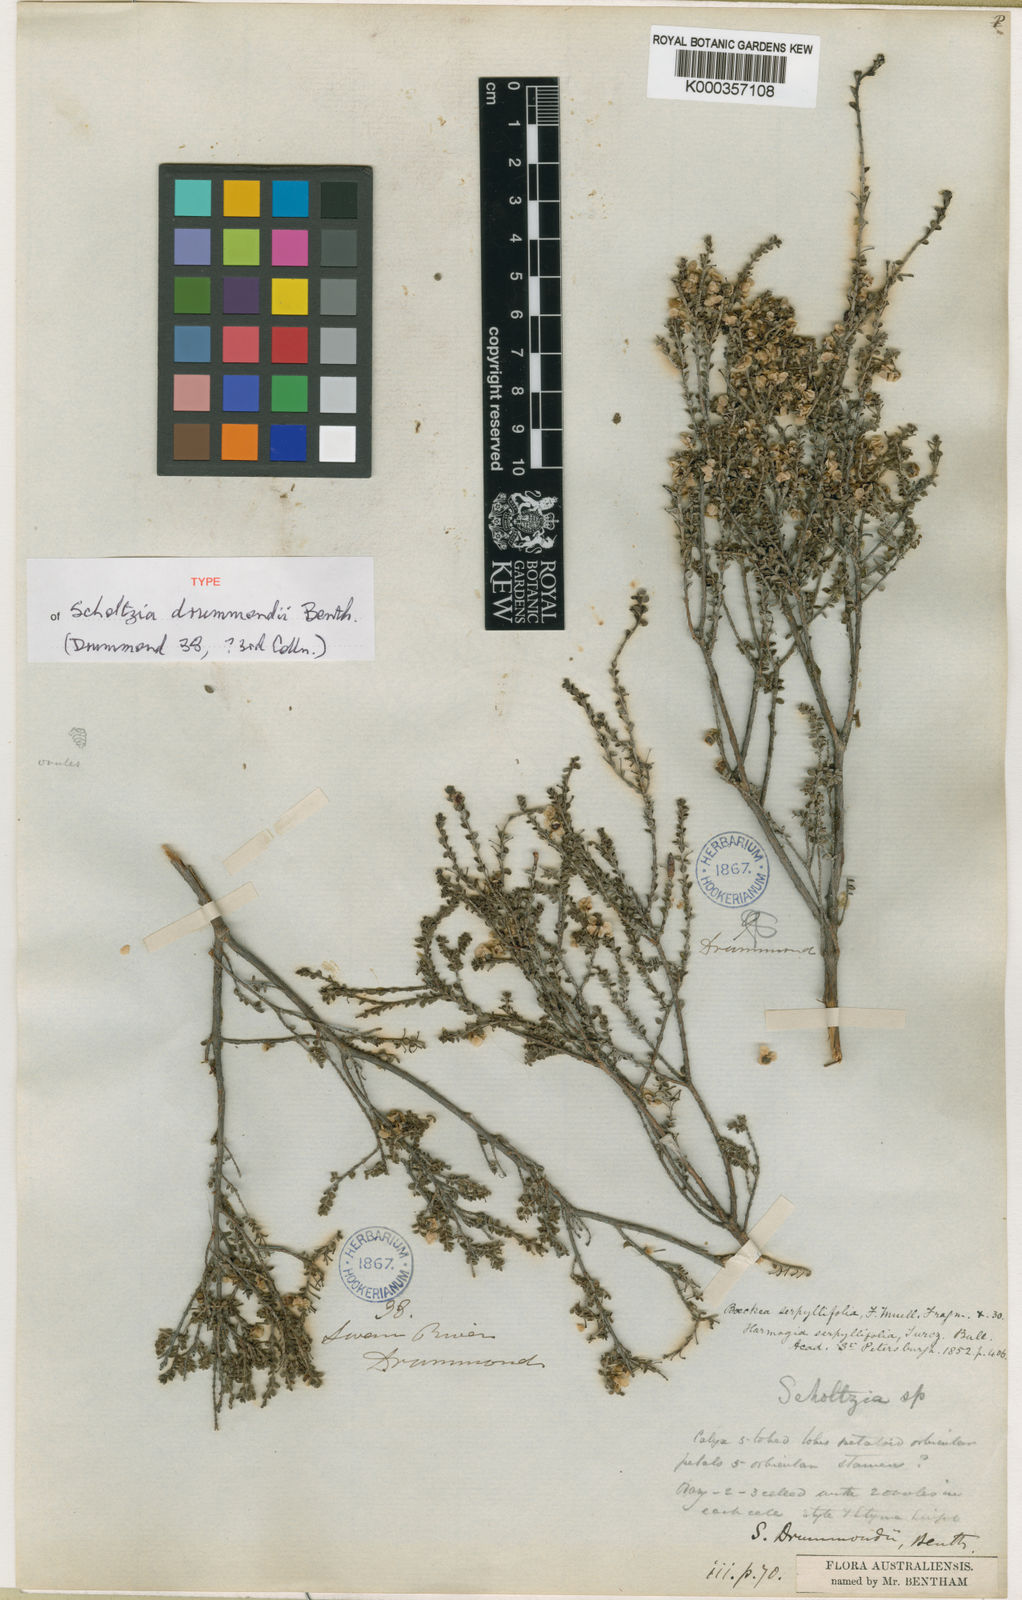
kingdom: Plantae
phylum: Tracheophyta
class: Magnoliopsida
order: Myrtales
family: Myrtaceae
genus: Scholtzia
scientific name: Scholtzia drummondii
